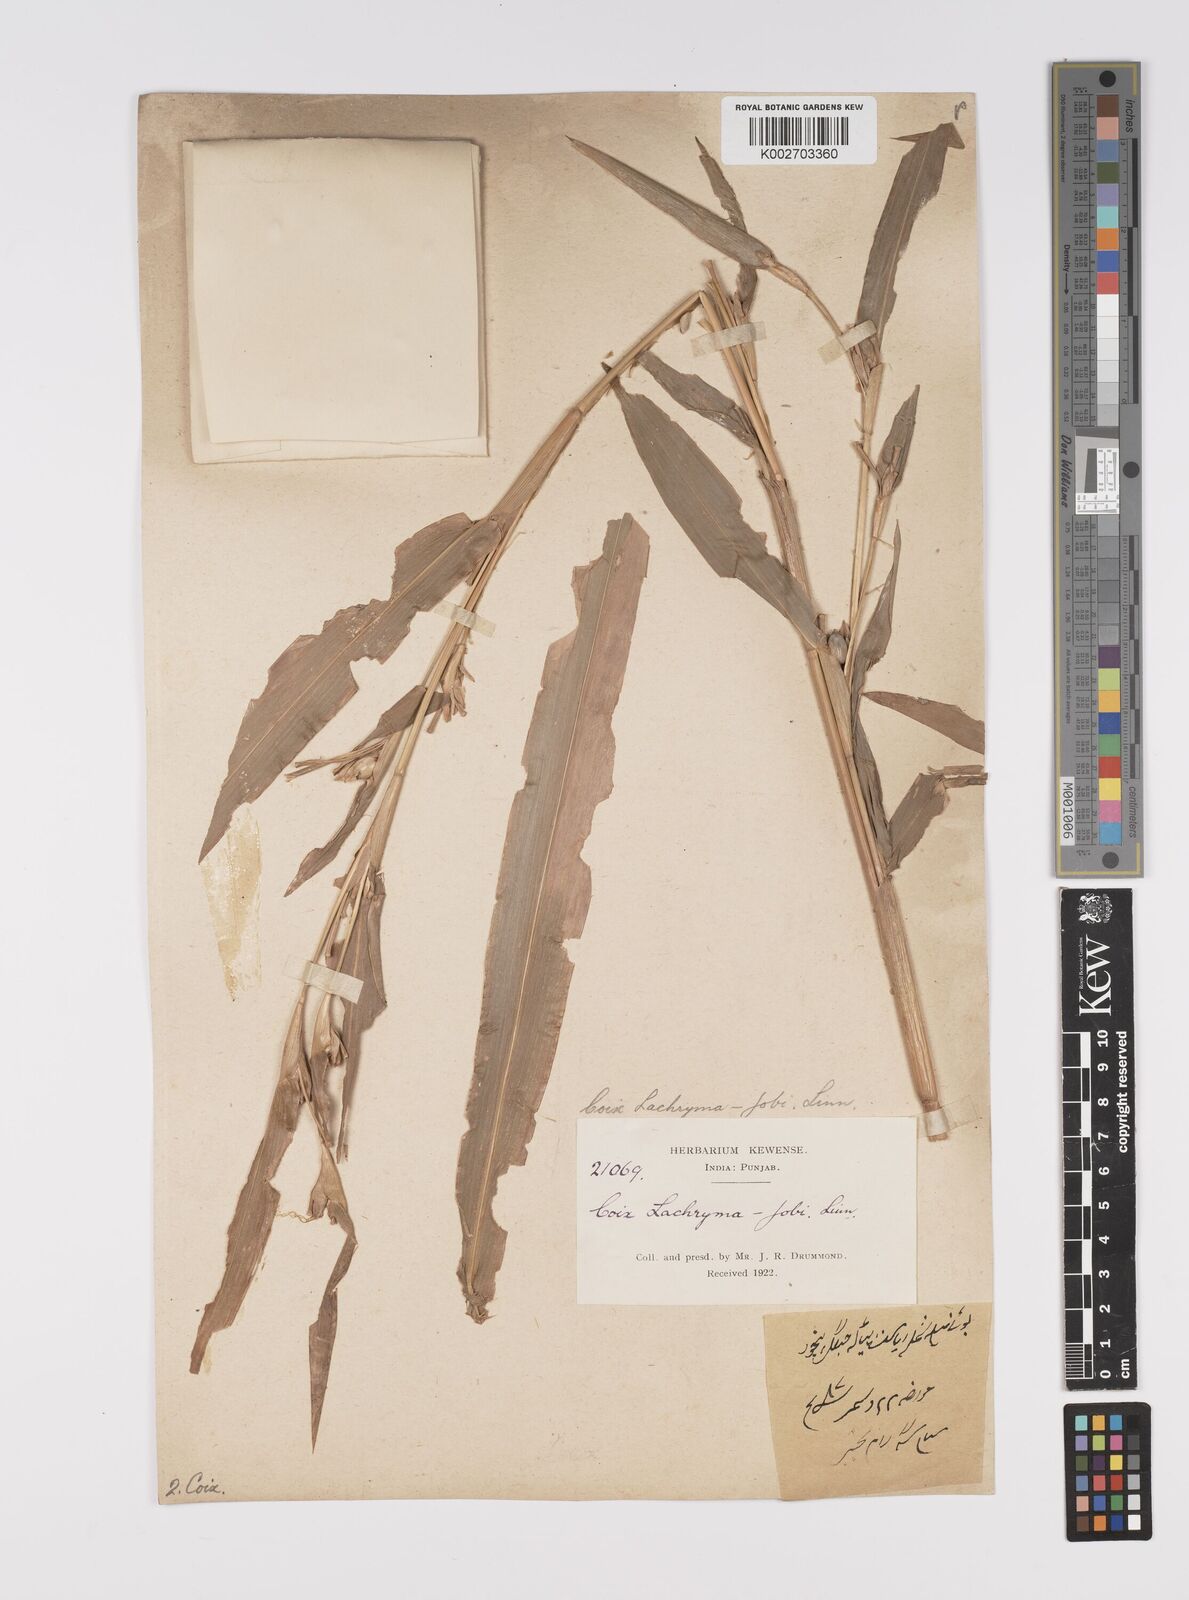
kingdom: Plantae
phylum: Tracheophyta
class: Liliopsida
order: Poales
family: Poaceae
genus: Coix
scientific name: Coix lacryma-jobi
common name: Job's tears
